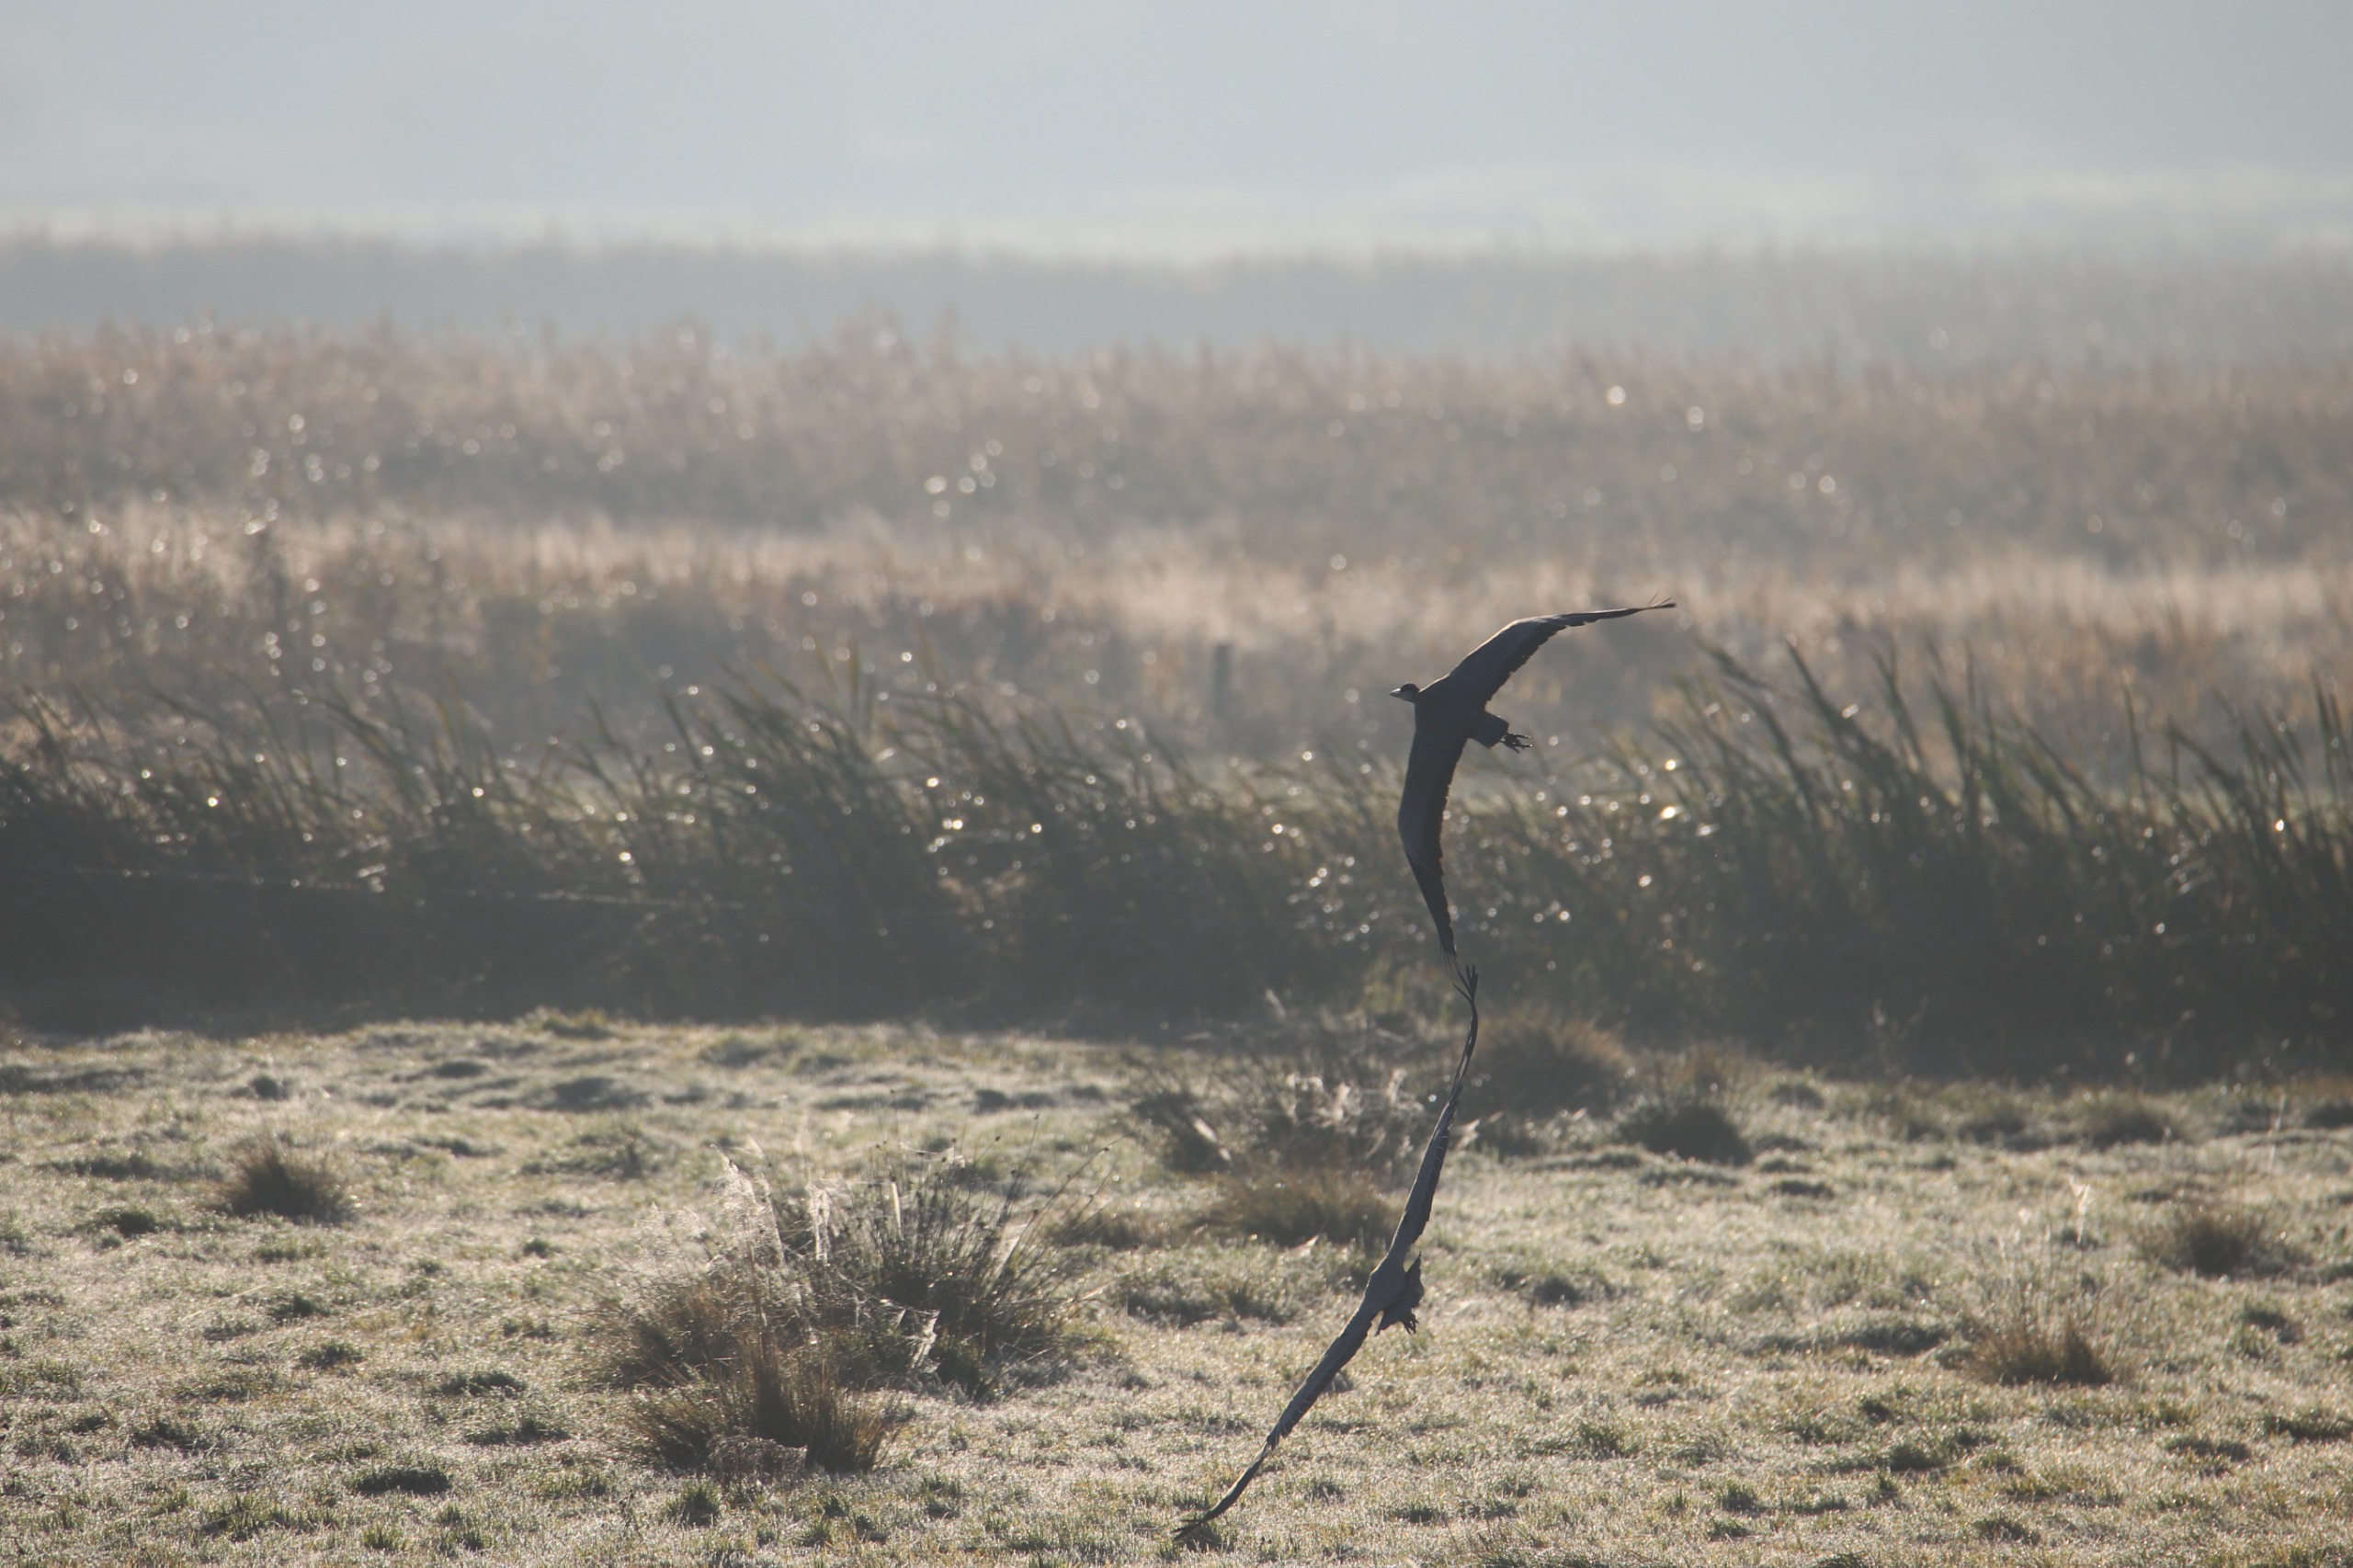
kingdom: Animalia
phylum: Chordata
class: Aves
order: Pelecaniformes
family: Ardeidae
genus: Ardea
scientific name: Ardea cinerea
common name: Fiskehejre
